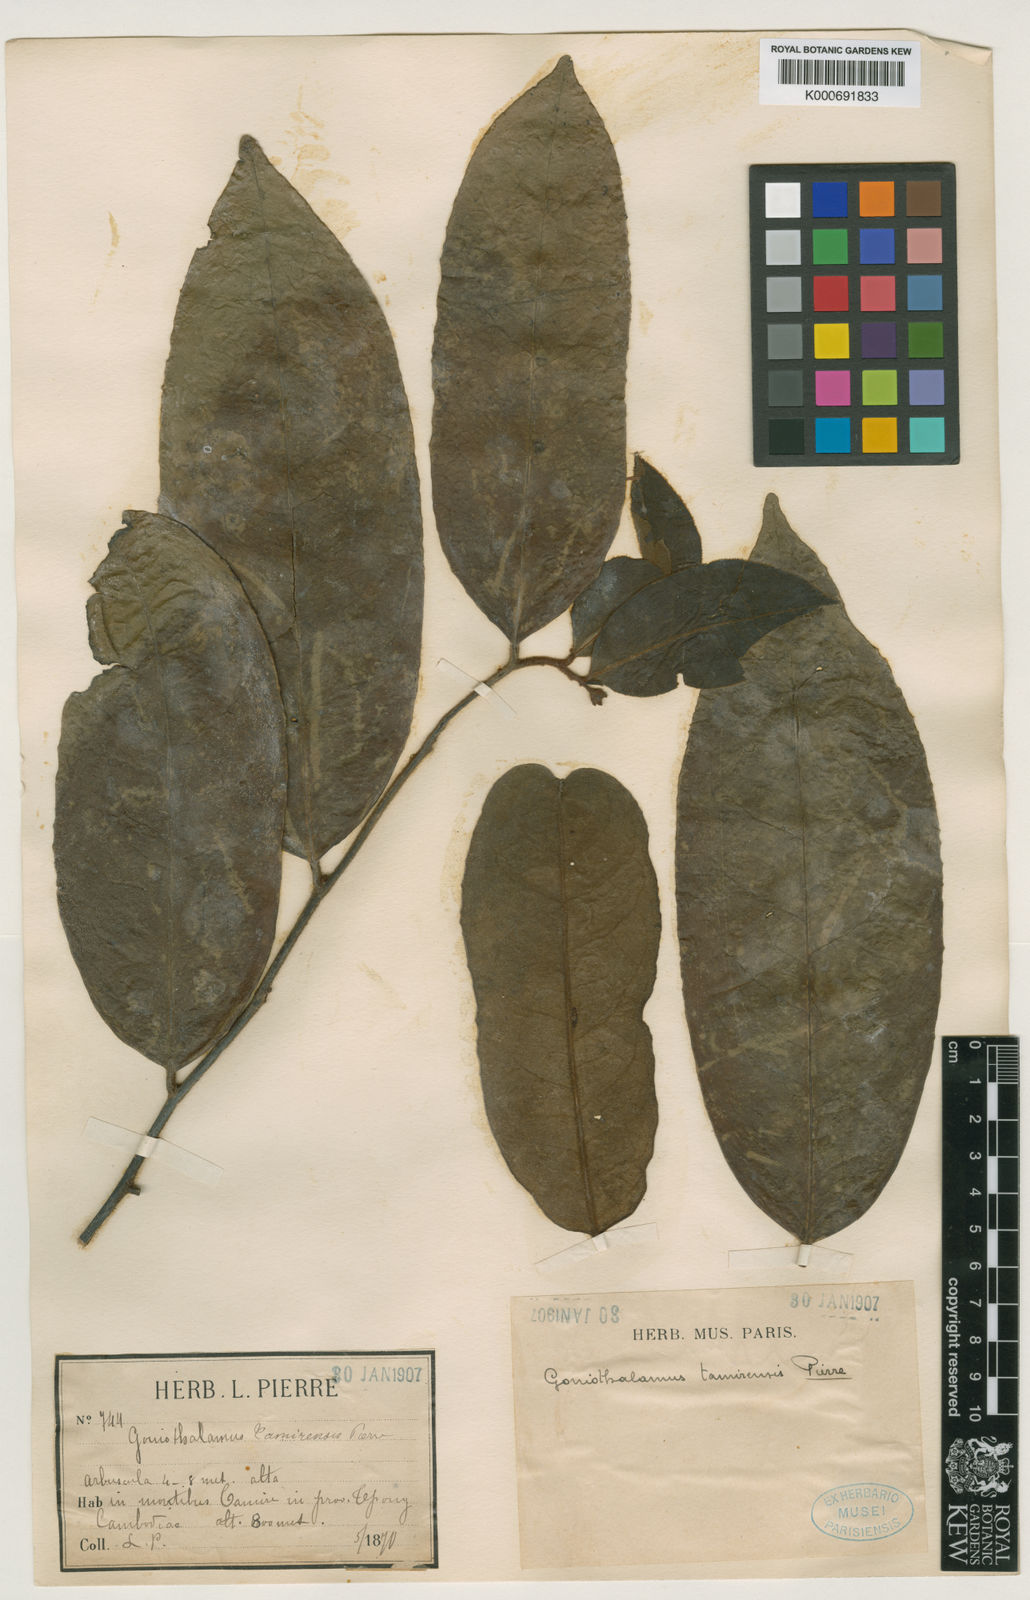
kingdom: Plantae
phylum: Tracheophyta
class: Magnoliopsida
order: Magnoliales
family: Annonaceae
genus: Goniothalamus
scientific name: Goniothalamus tamirensis
